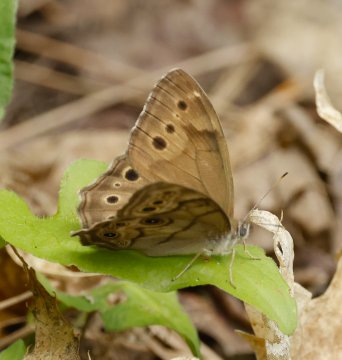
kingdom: Animalia
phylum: Arthropoda
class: Insecta
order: Lepidoptera
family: Nymphalidae
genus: Lethe
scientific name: Lethe anthedon
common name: Northern Pearly-Eye
